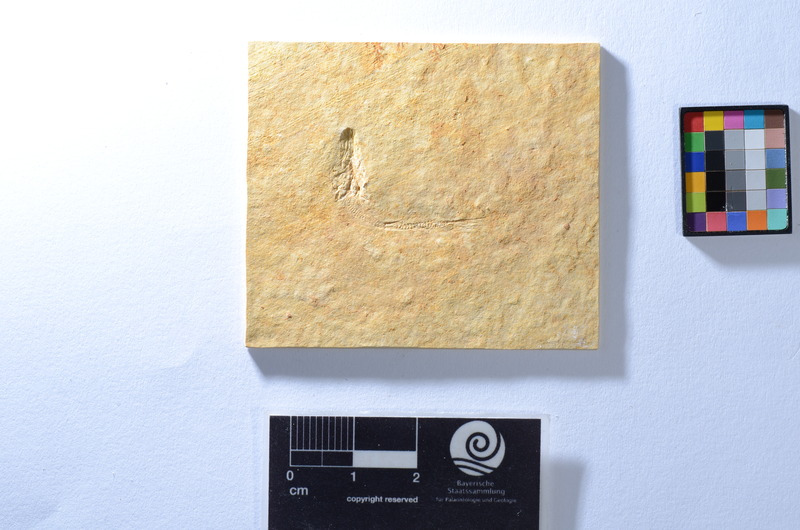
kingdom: Animalia
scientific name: Animalia
